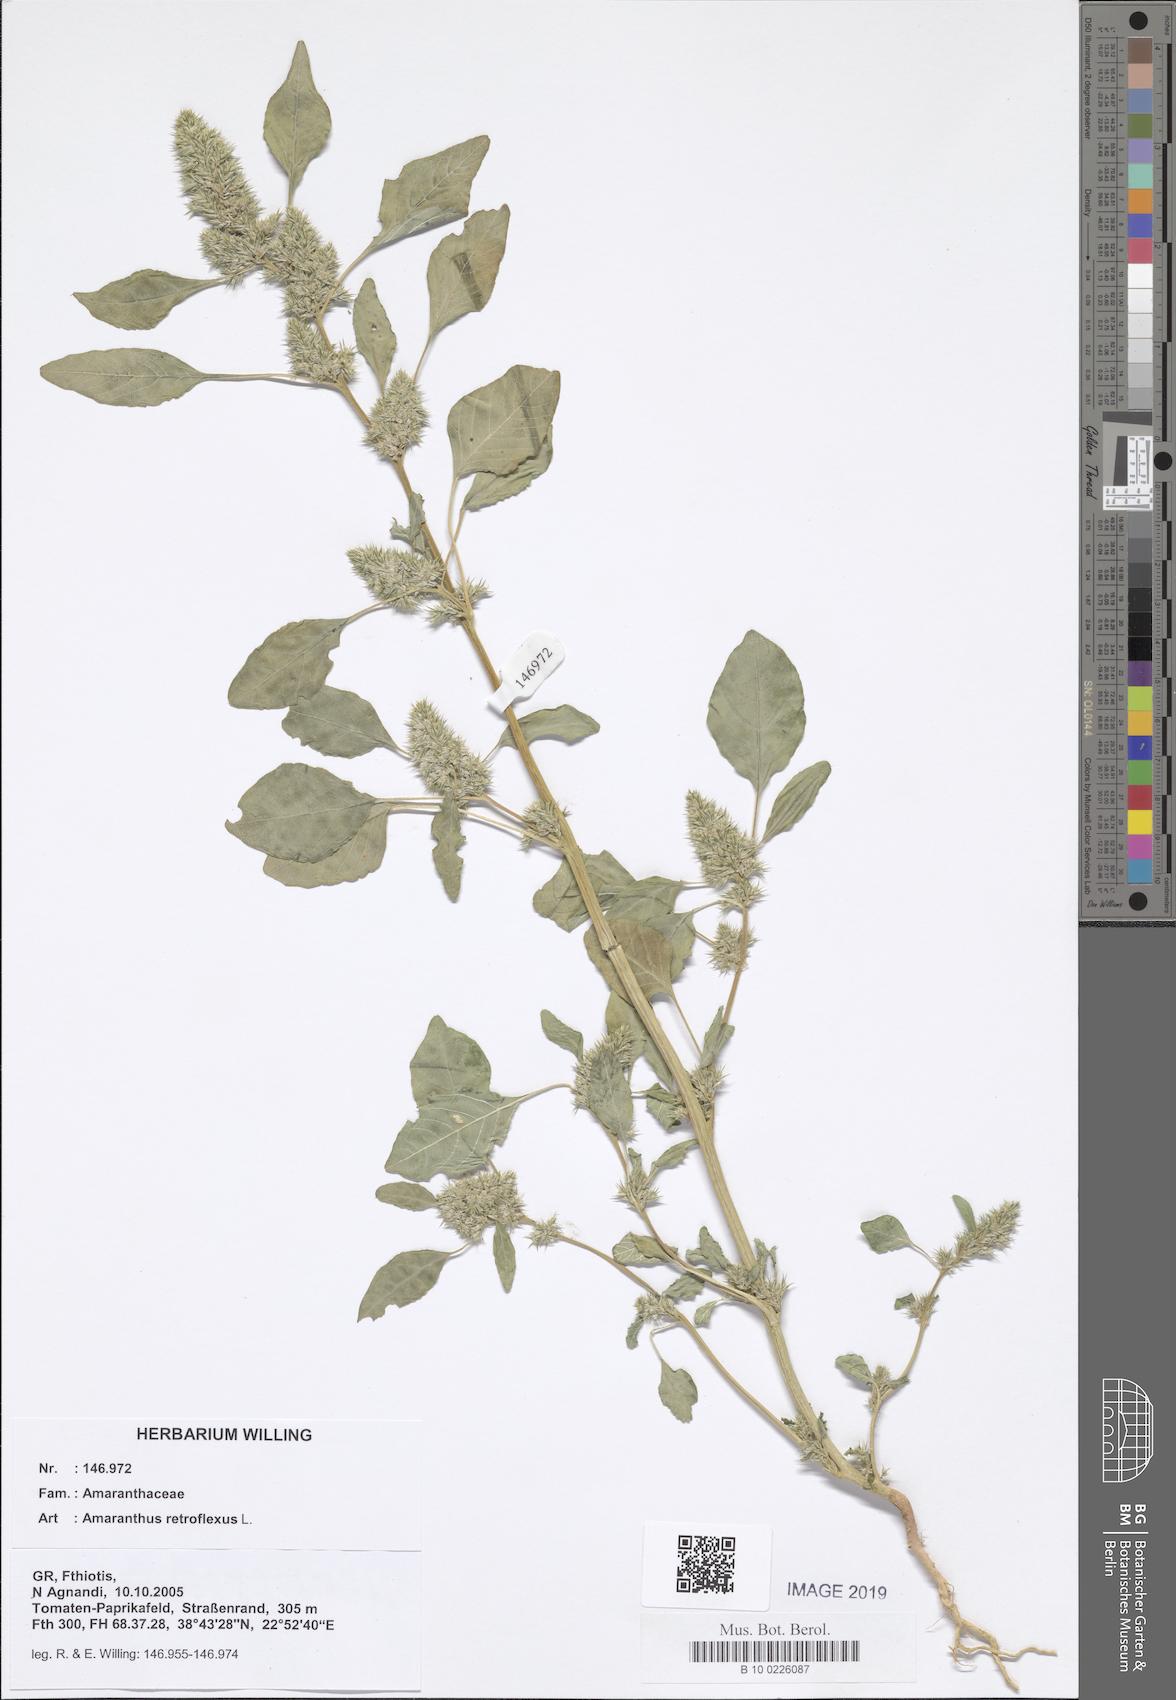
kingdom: Plantae
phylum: Tracheophyta
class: Magnoliopsida
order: Caryophyllales
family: Amaranthaceae
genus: Amaranthus
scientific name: Amaranthus retroflexus
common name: Redroot amaranth
